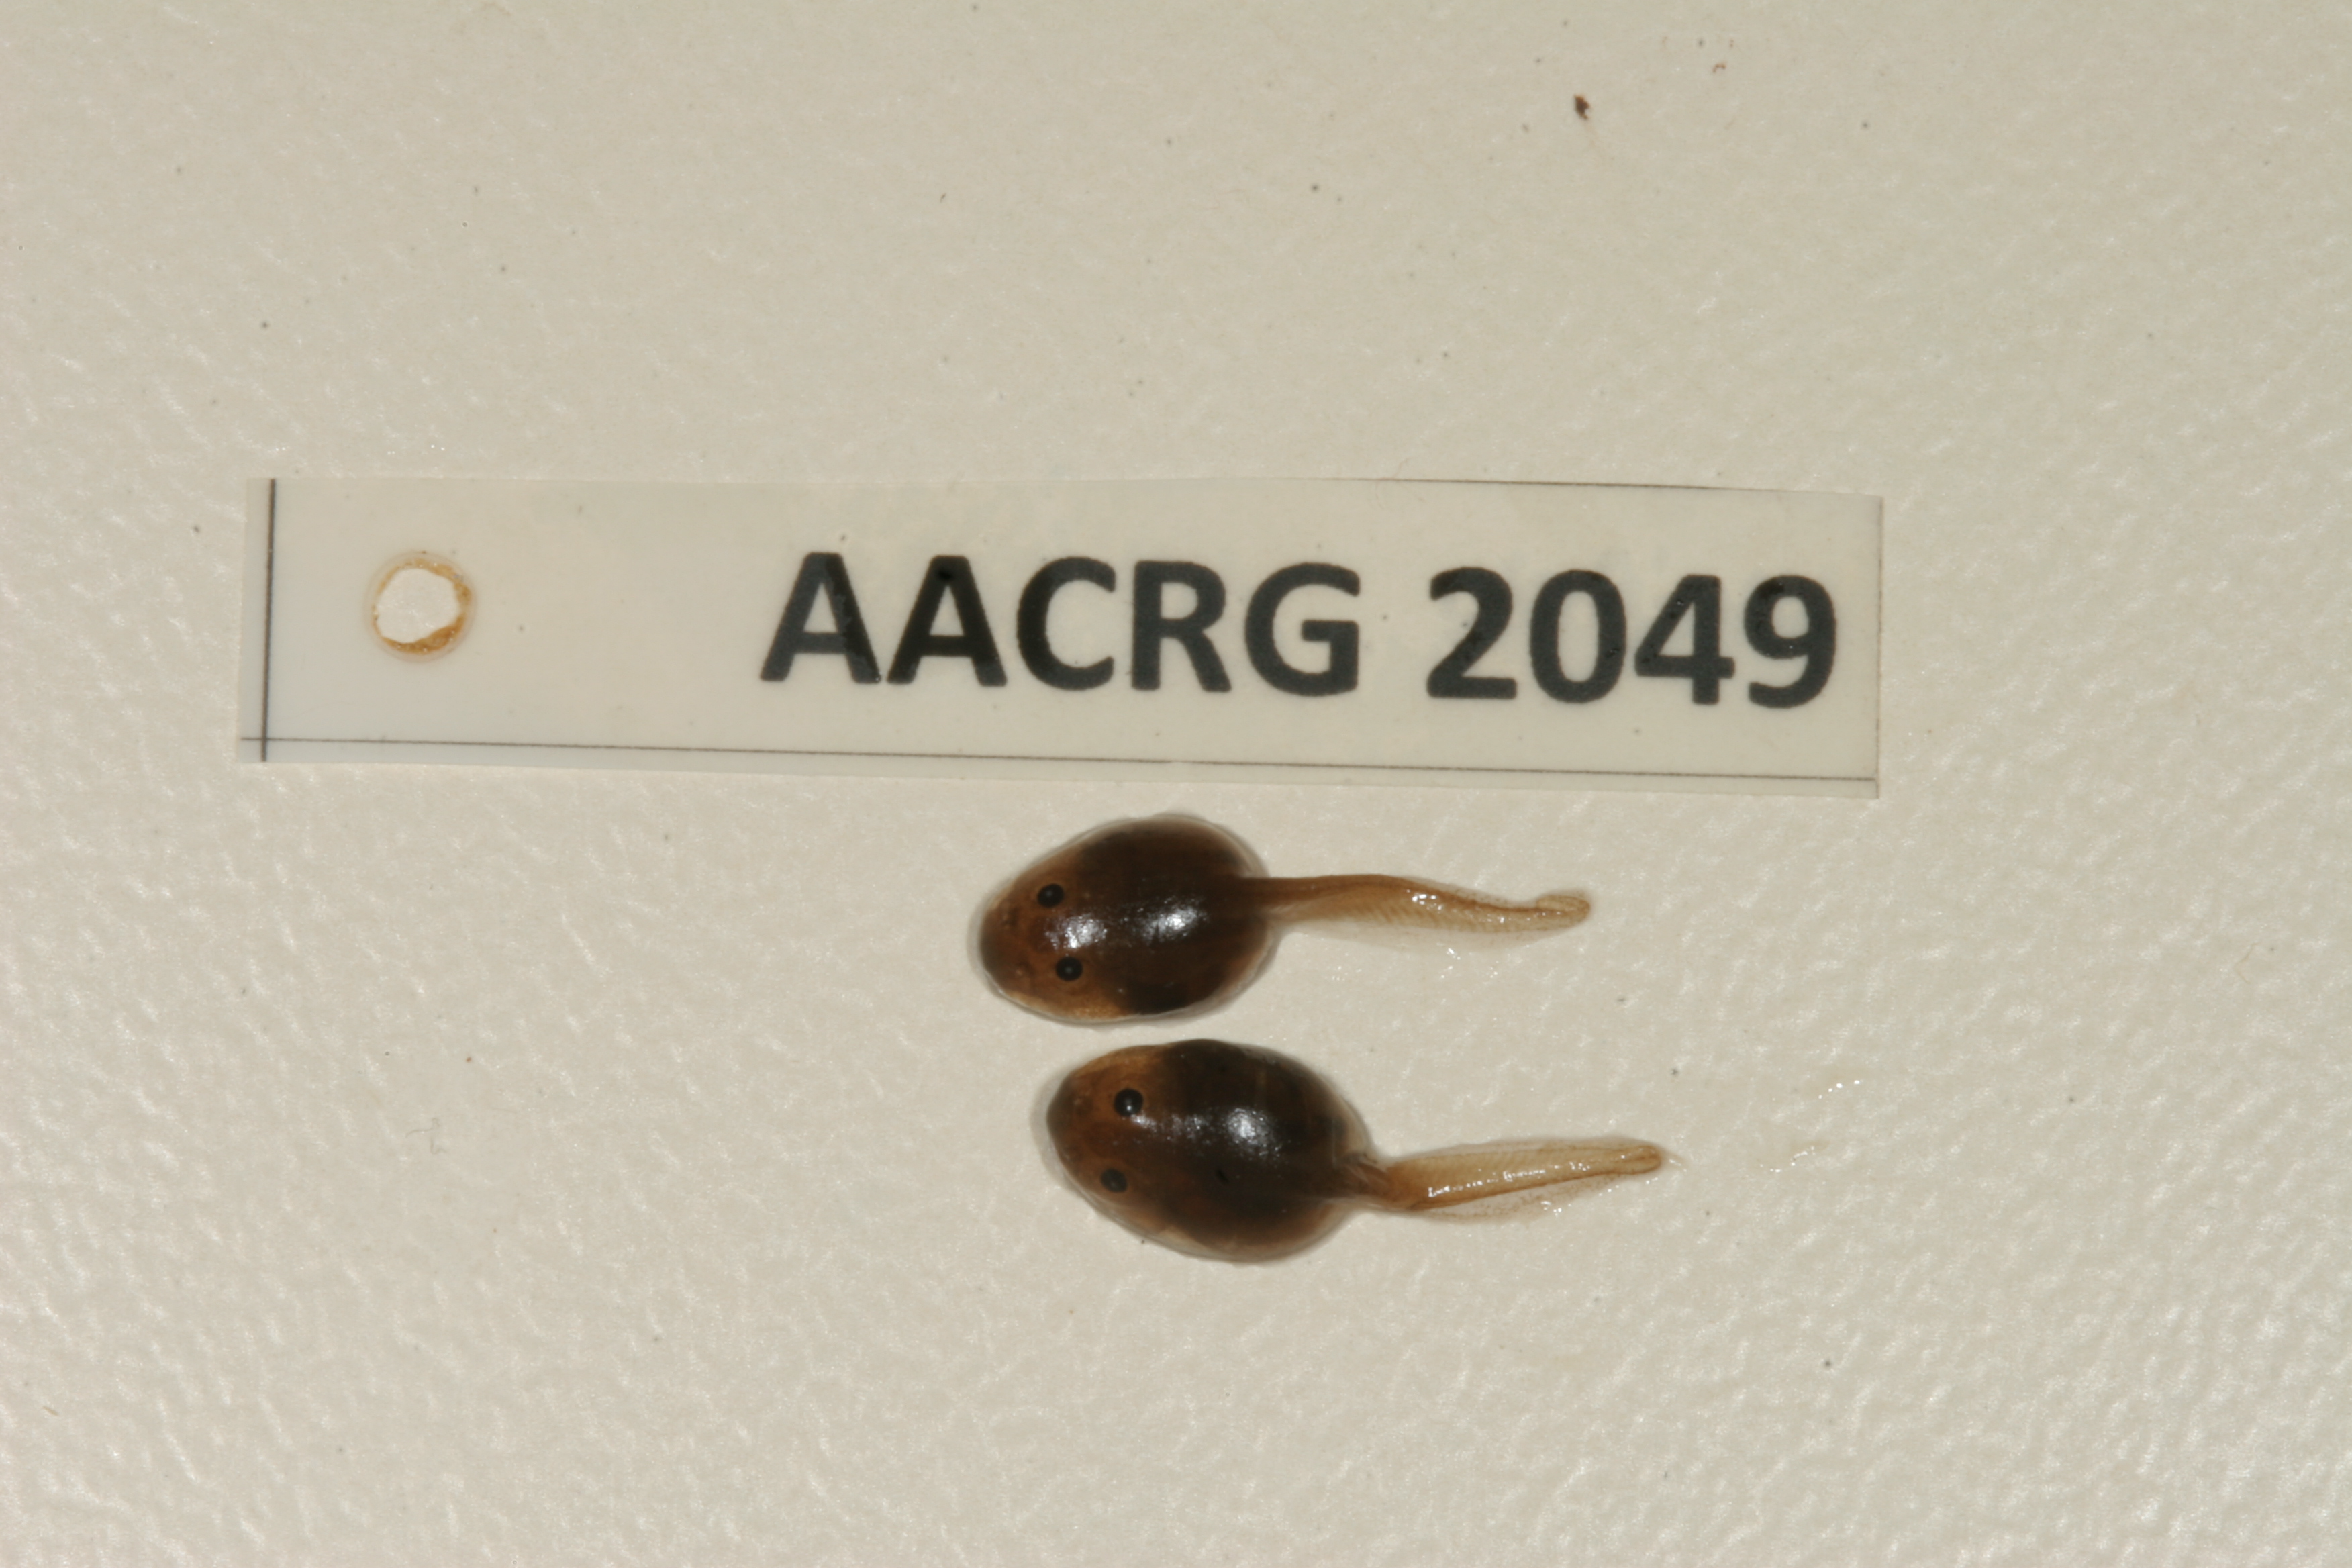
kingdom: Animalia
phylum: Chordata
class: Amphibia
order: Anura
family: Pyxicephalidae
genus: Strongylopus
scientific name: Strongylopus grayii
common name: Gray's stream frog
